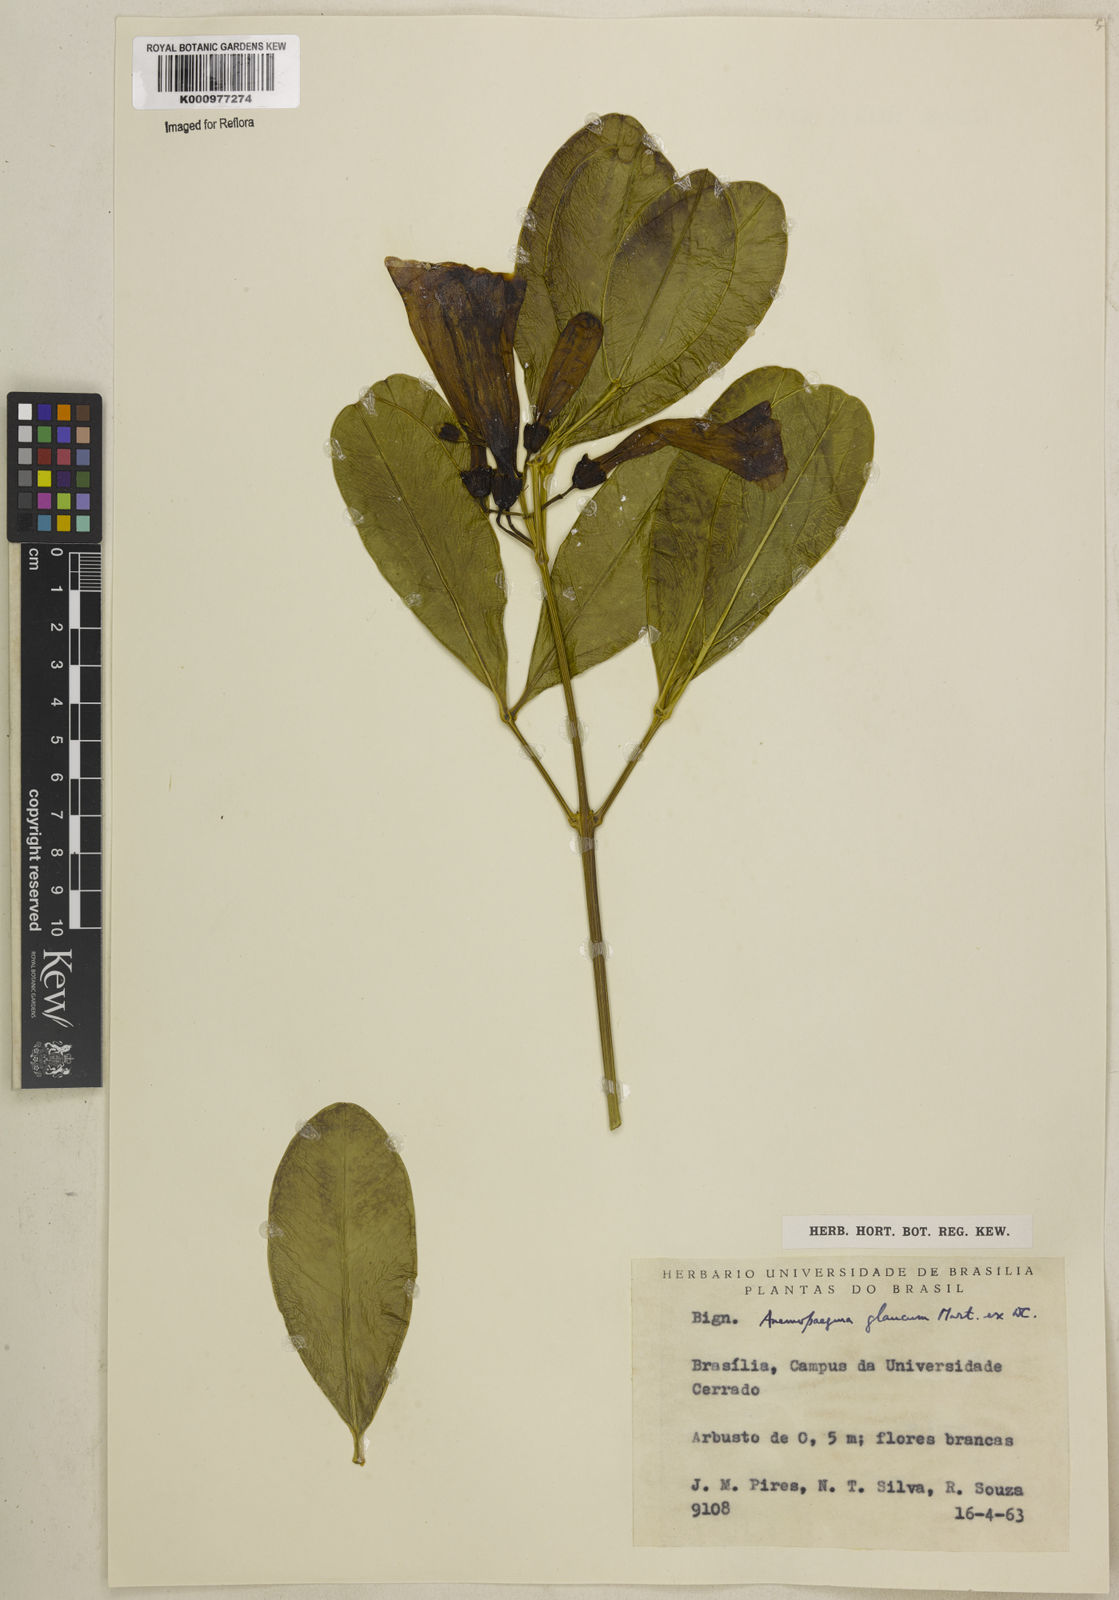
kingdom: Plantae
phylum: Tracheophyta
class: Magnoliopsida
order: Lamiales
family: Bignoniaceae
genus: Anemopaegma
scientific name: Anemopaegma glaucum
